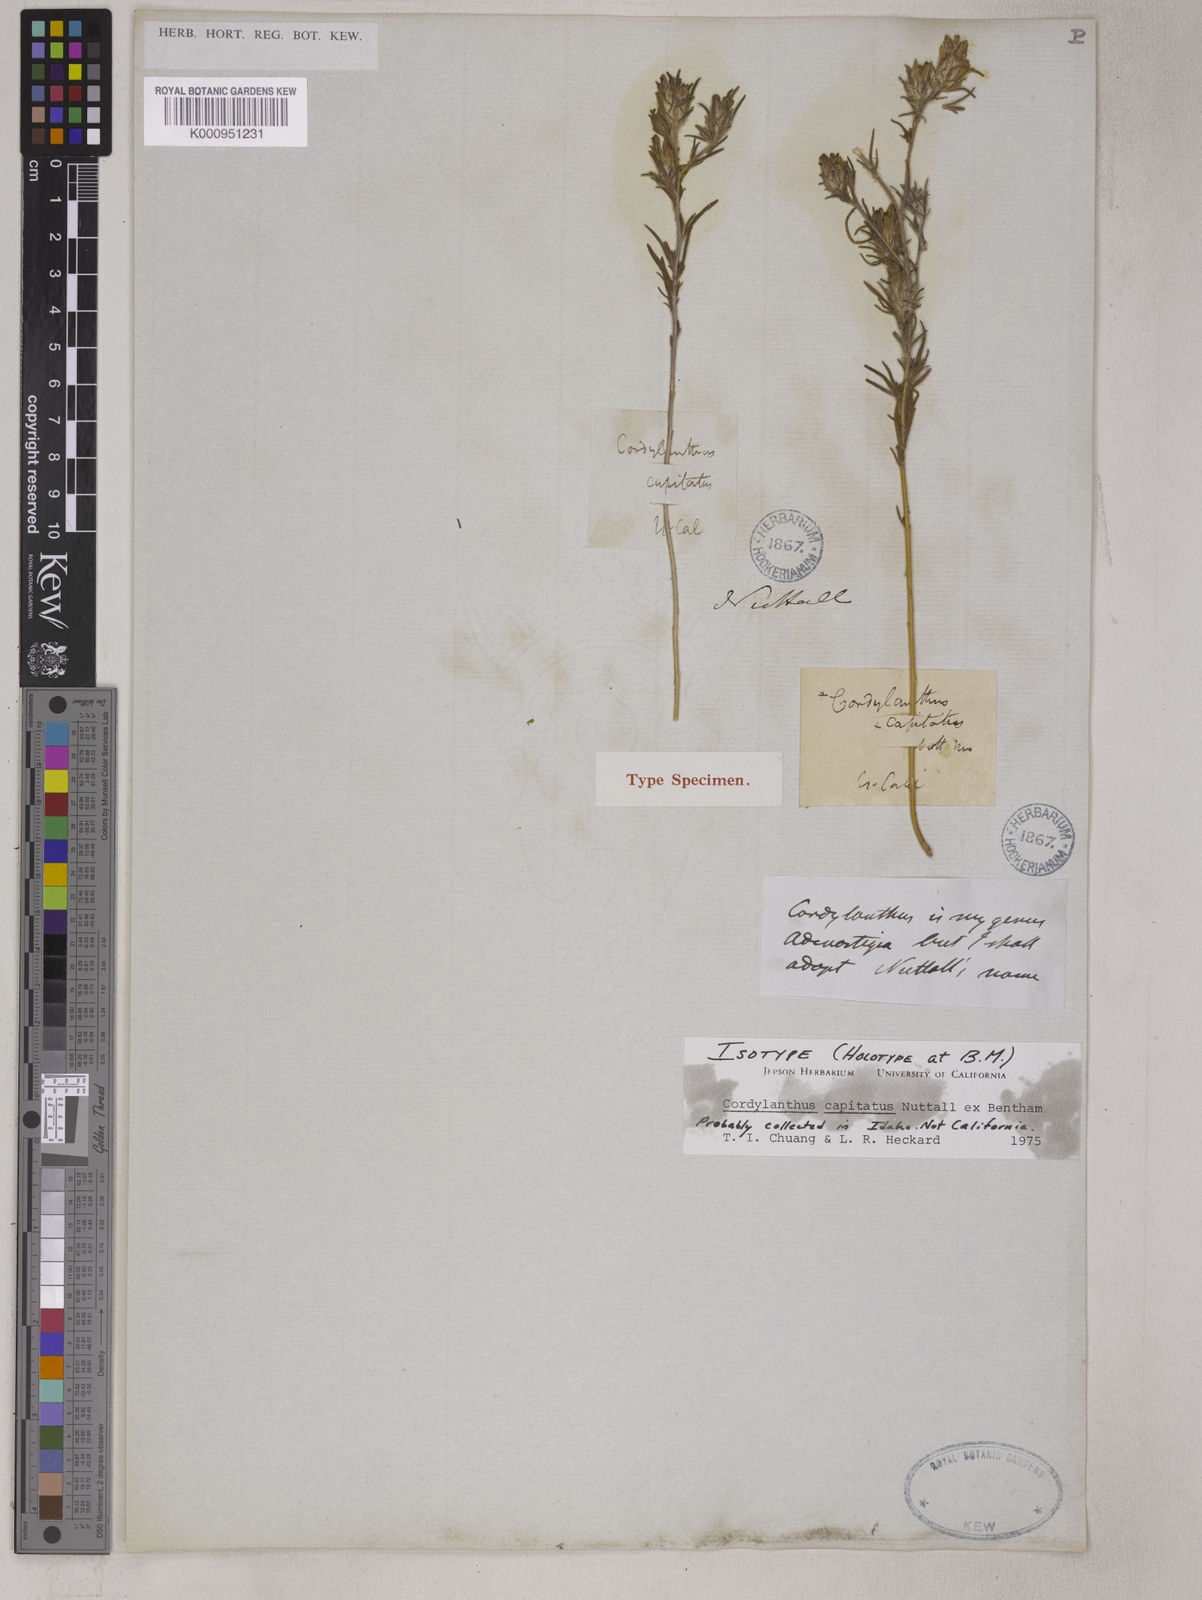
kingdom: Plantae
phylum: Tracheophyta
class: Magnoliopsida
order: Lamiales
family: Orobanchaceae
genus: Cordylanthus
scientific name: Cordylanthus capitatus
